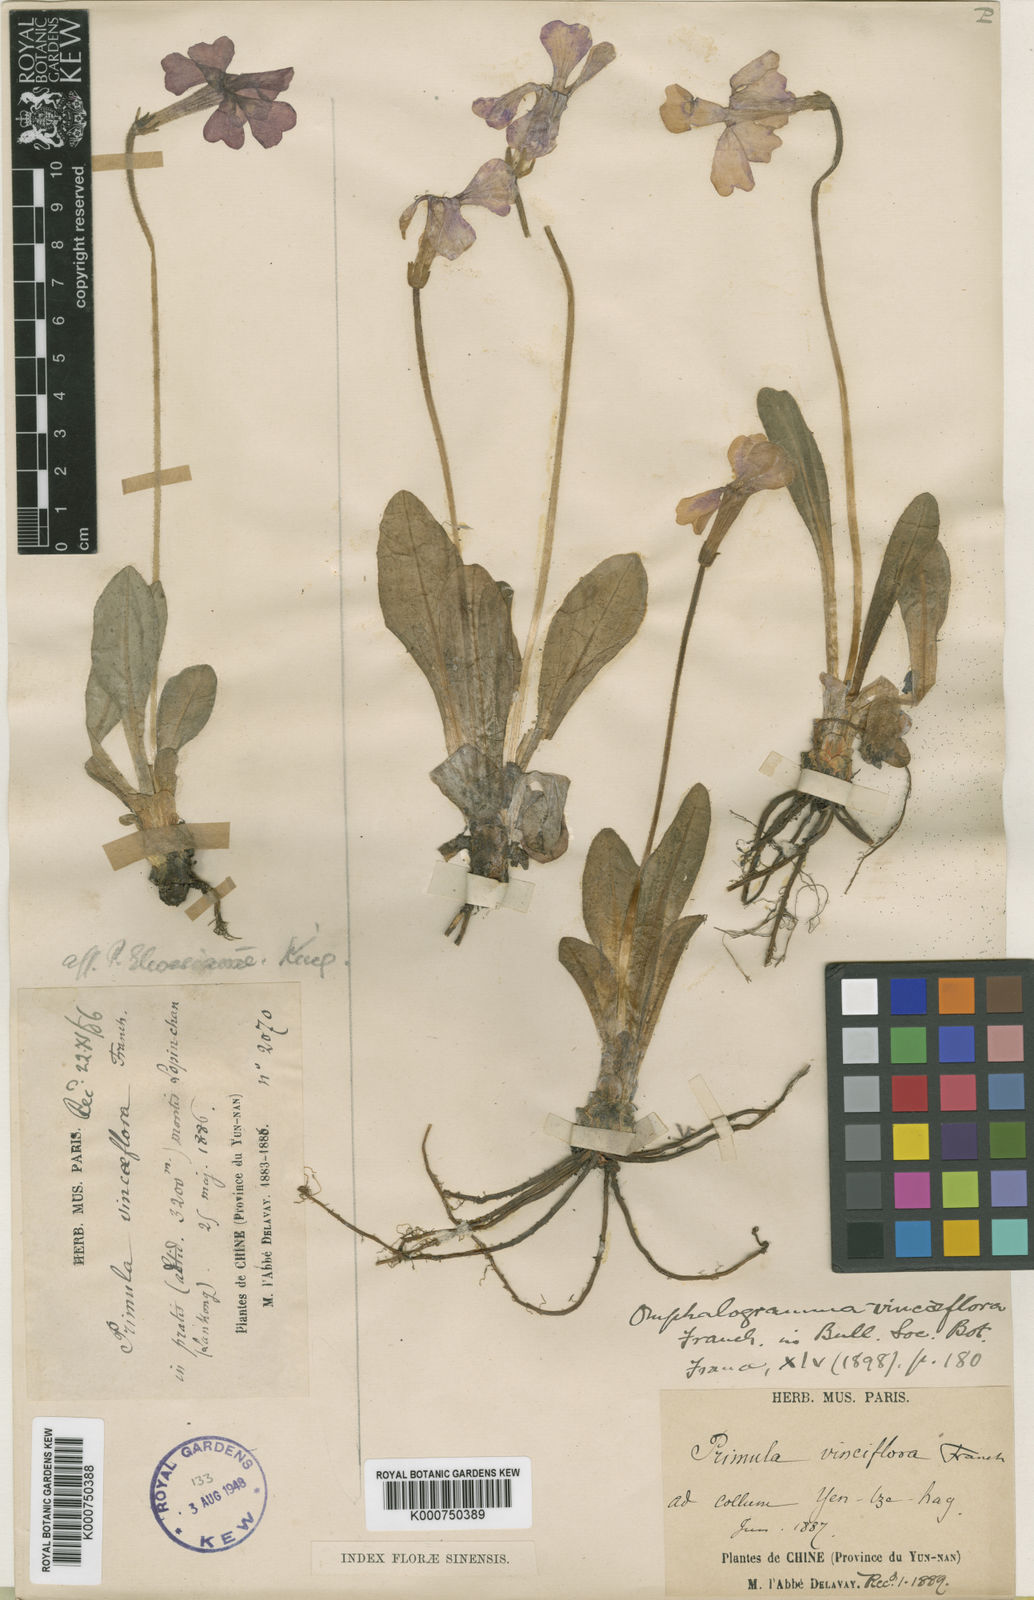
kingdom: Plantae
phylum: Tracheophyta
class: Magnoliopsida
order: Ericales
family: Primulaceae
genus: Omphalogramma
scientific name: Omphalogramma vinciflorum
